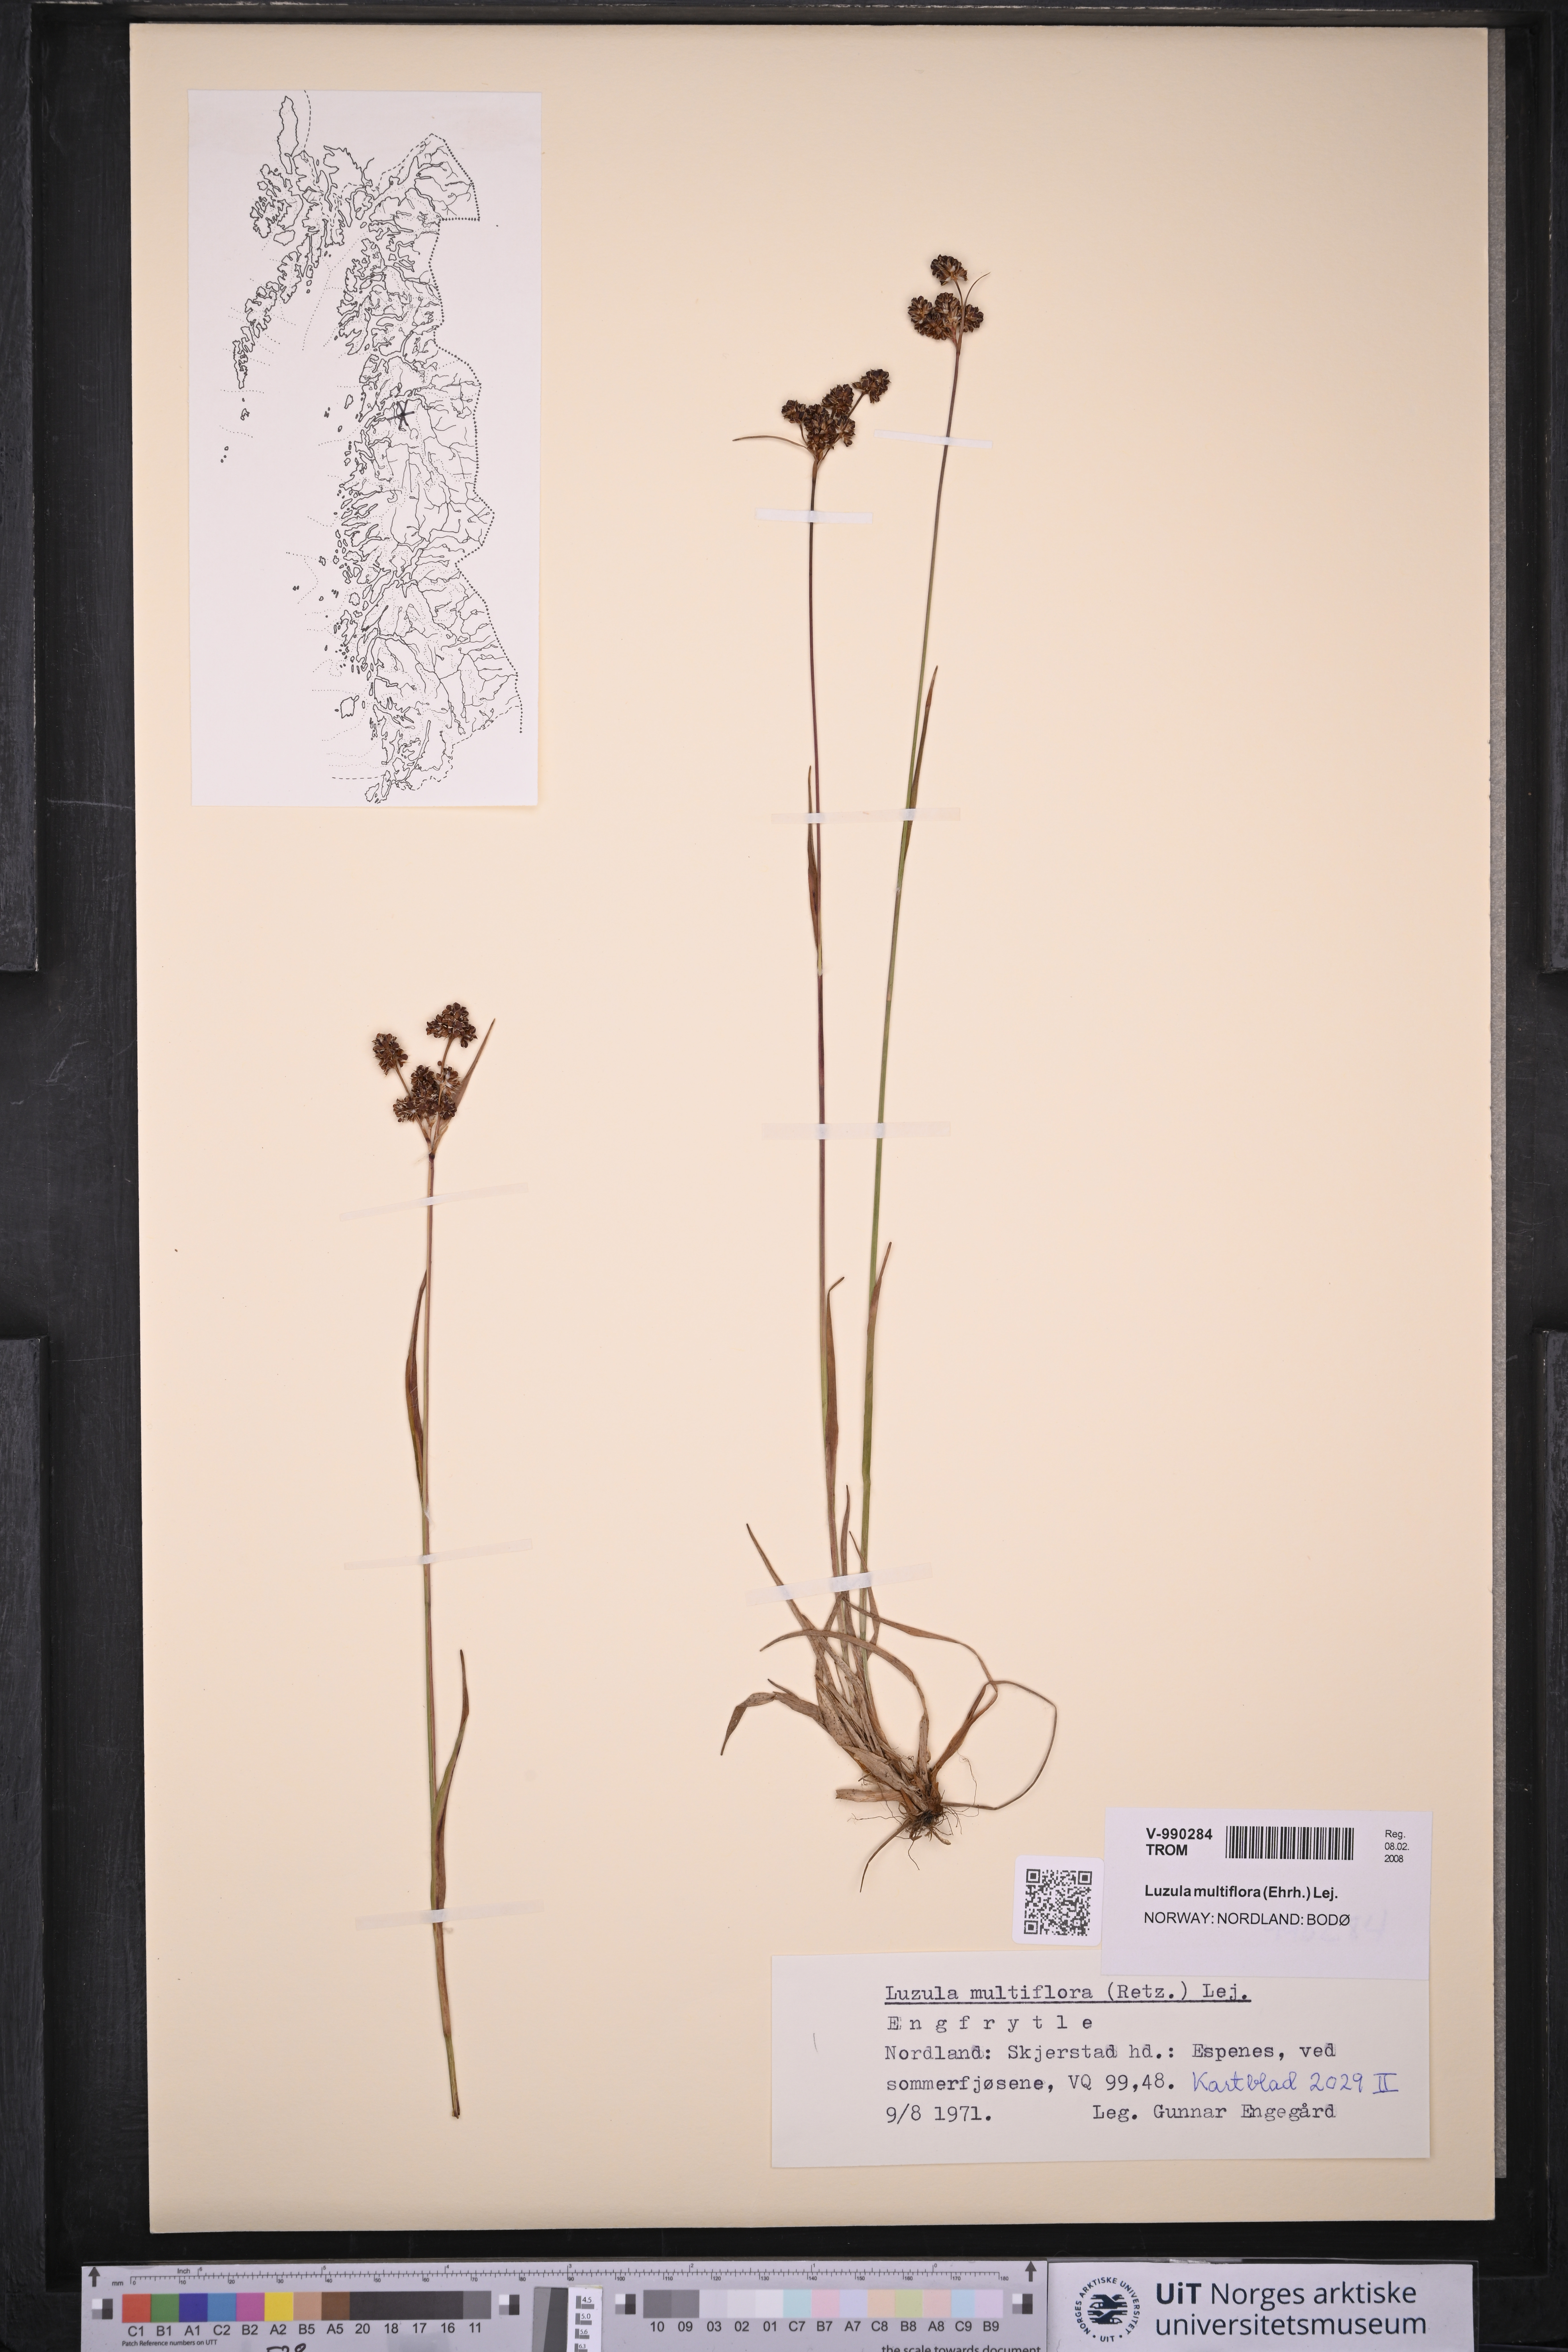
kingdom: Plantae
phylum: Tracheophyta
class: Liliopsida
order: Poales
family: Juncaceae
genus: Luzula
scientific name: Luzula multiflora
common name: Heath wood-rush
